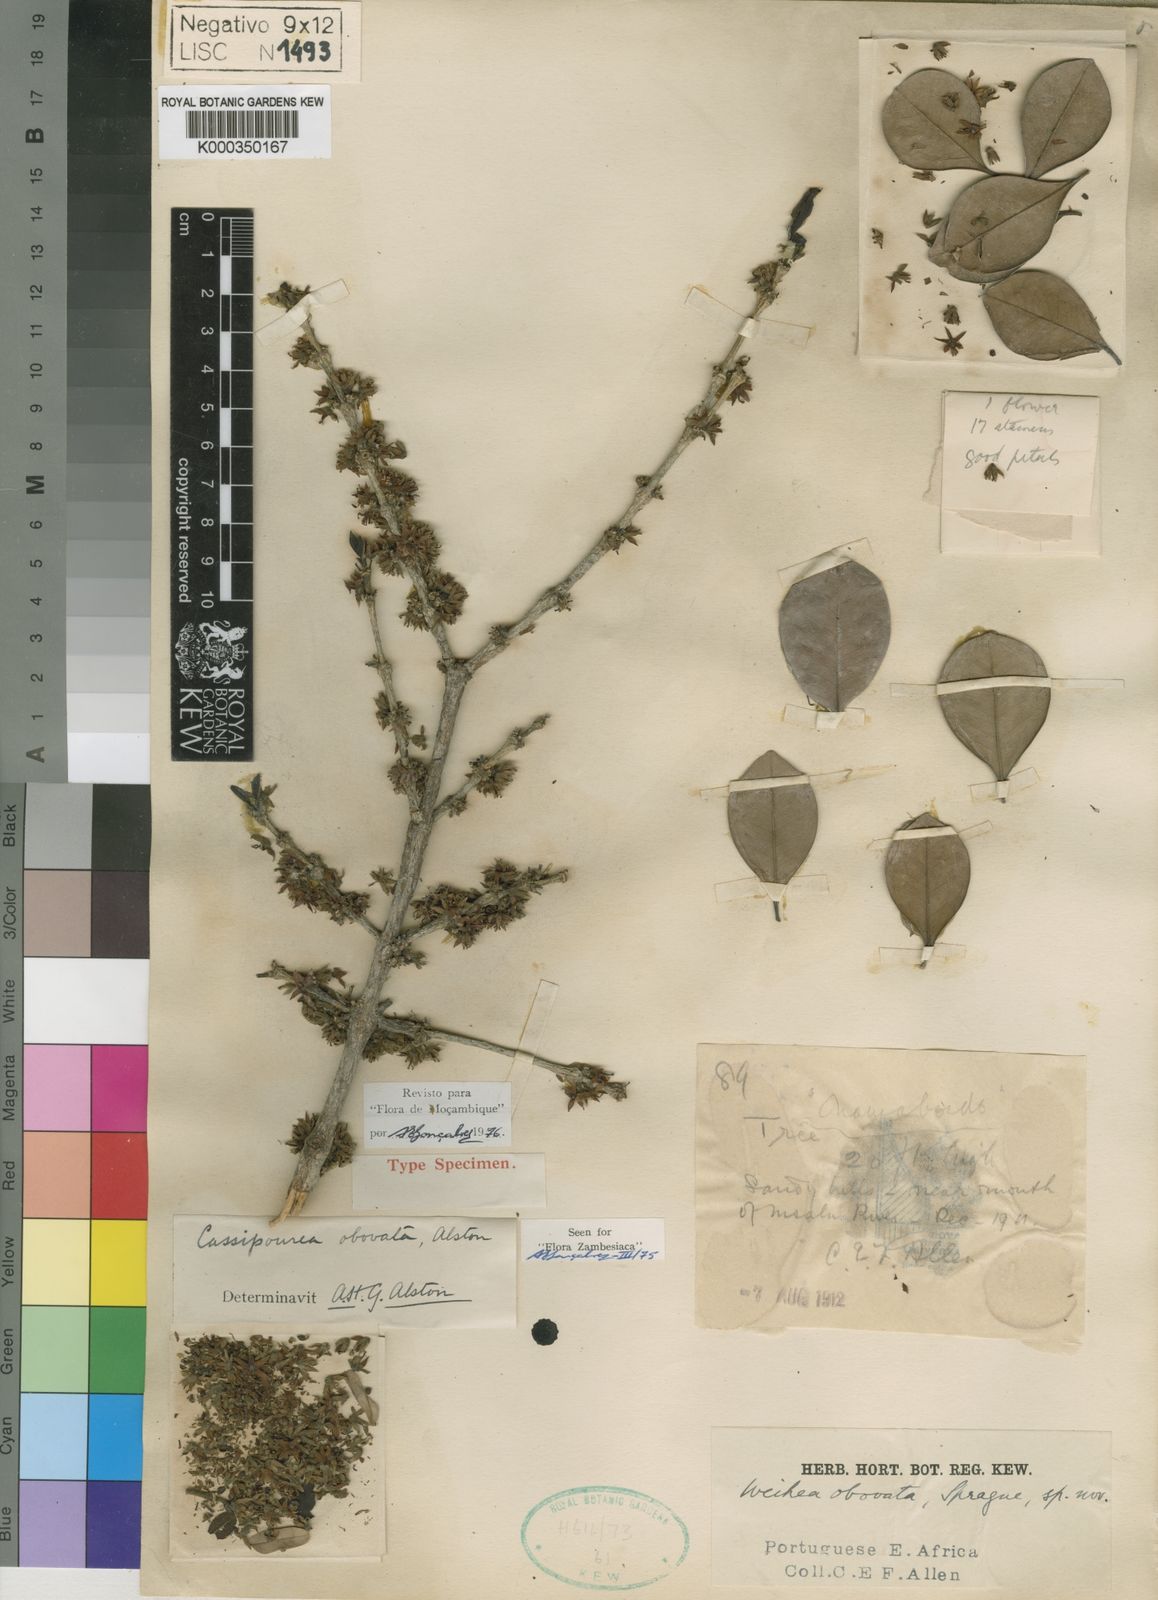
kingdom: Plantae
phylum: Tracheophyta
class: Magnoliopsida
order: Malpighiales
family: Rhizophoraceae
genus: Cassipourea
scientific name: Cassipourea obovata
